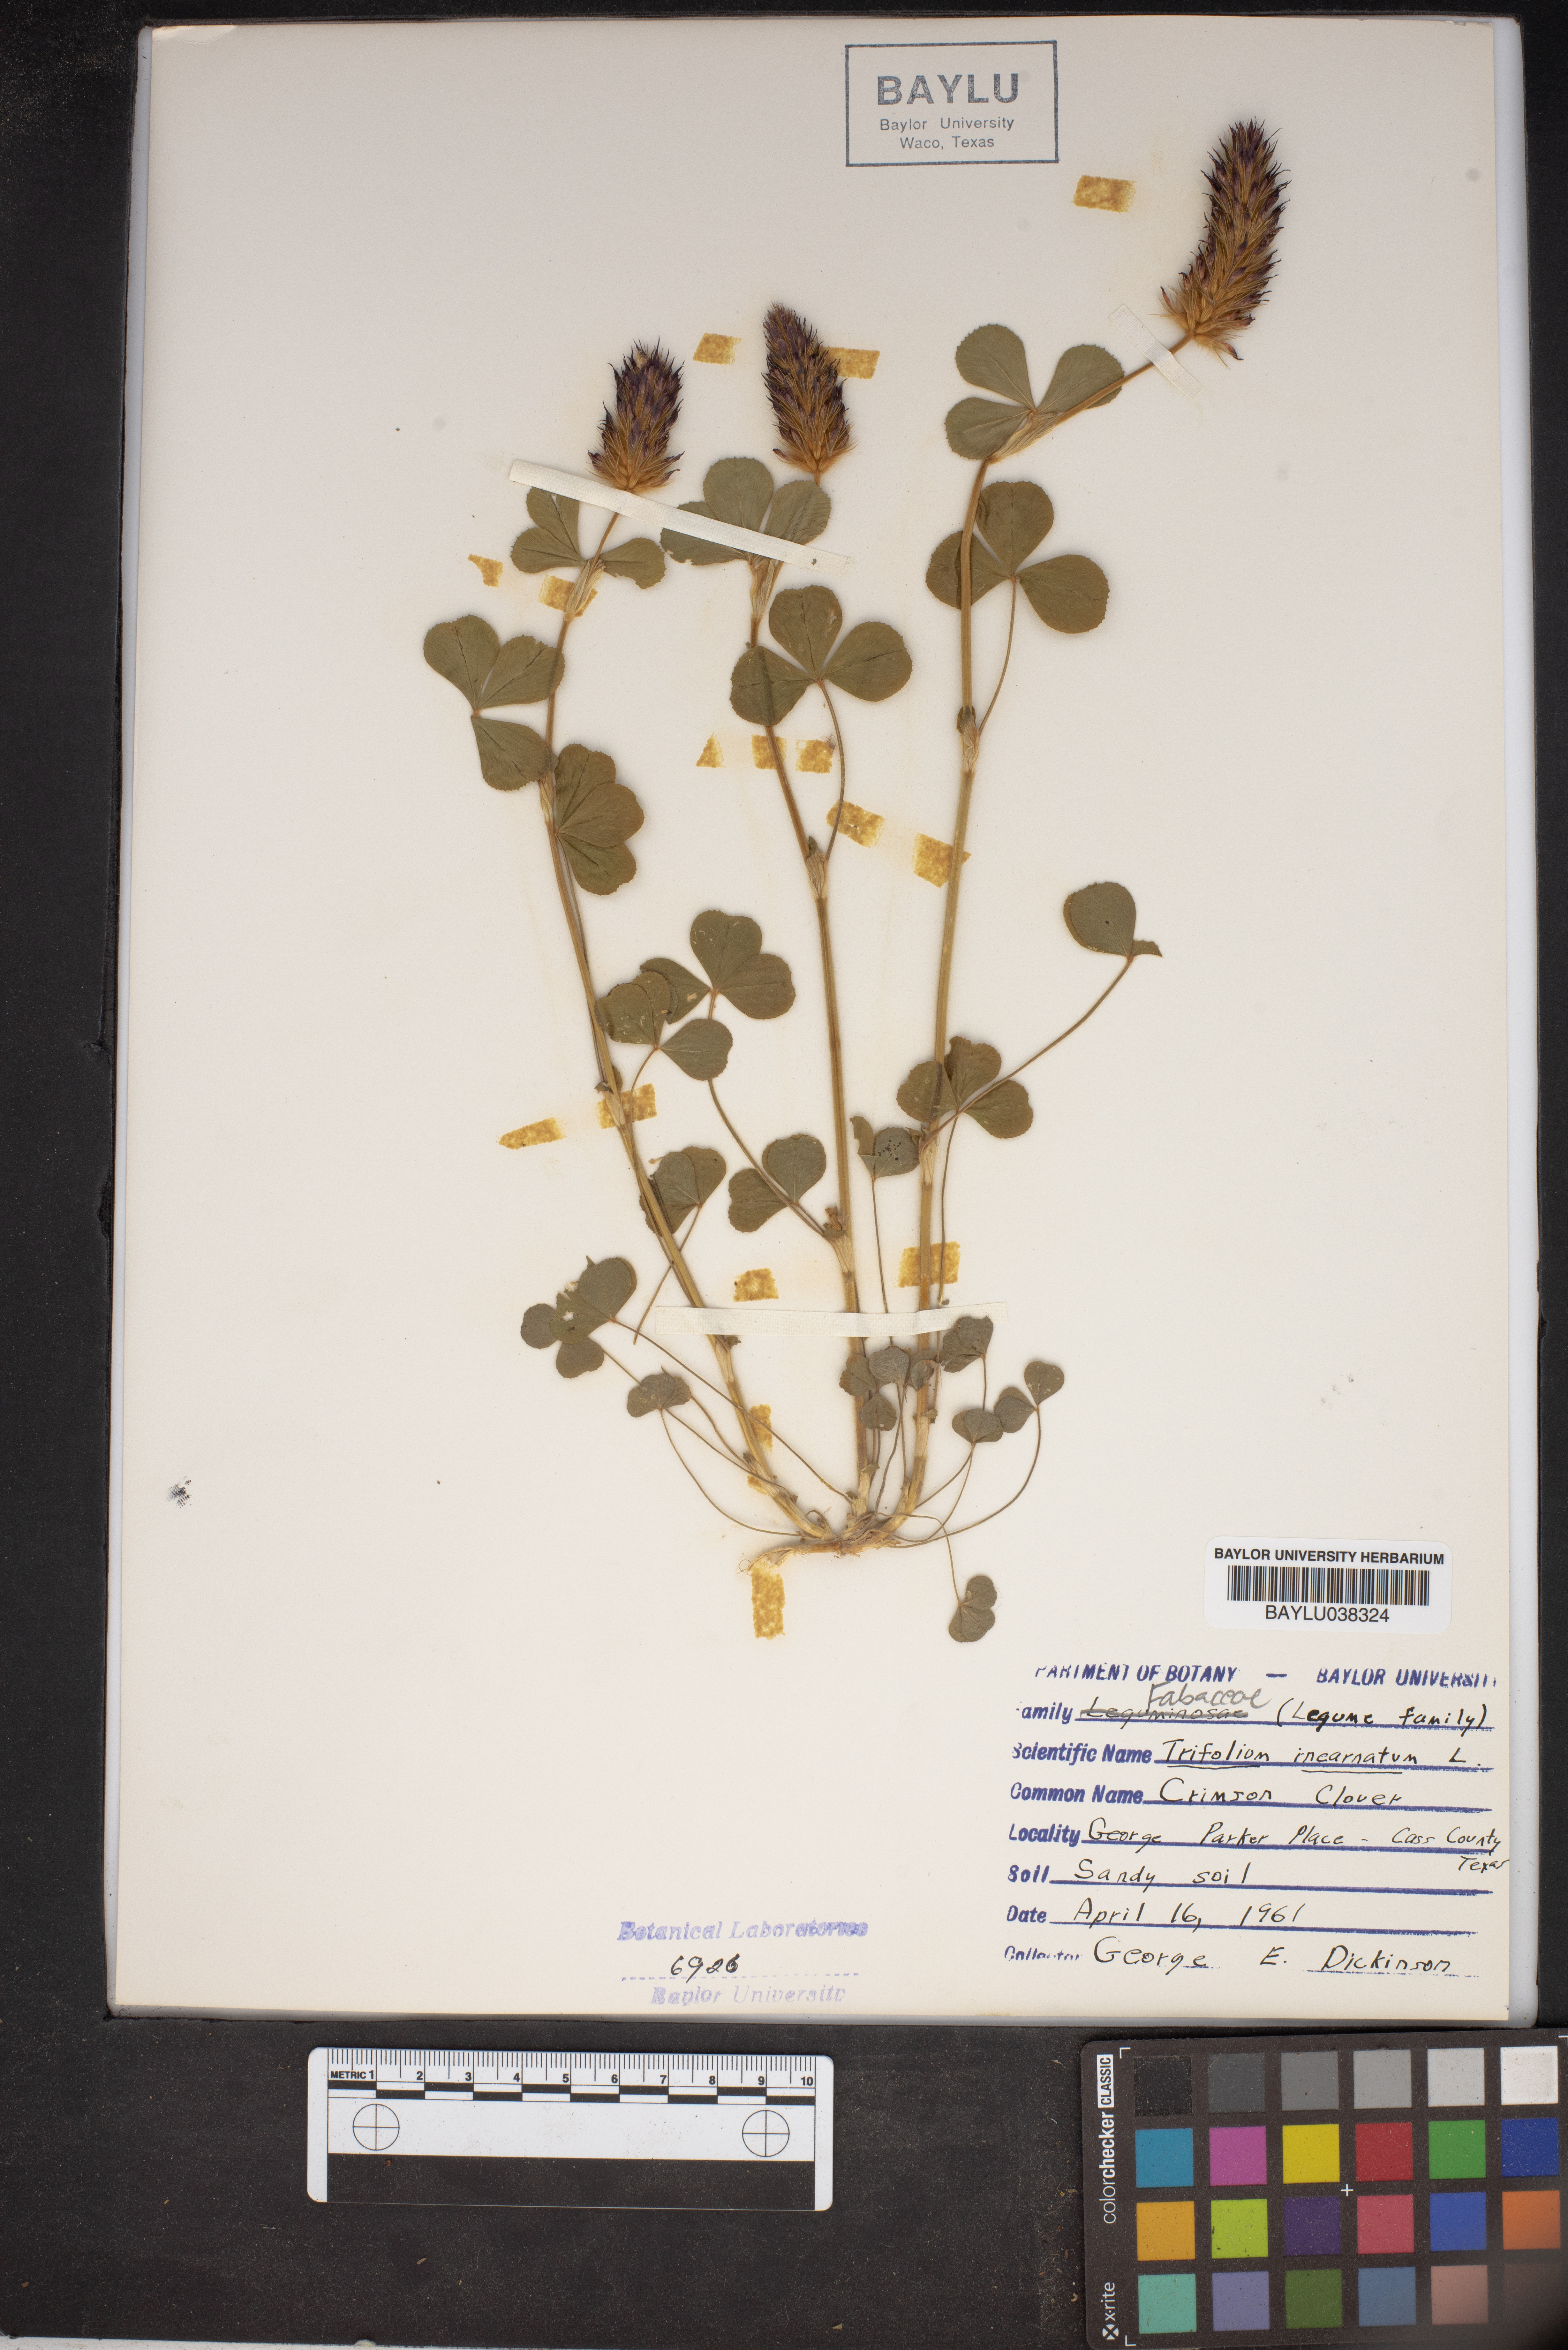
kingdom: Plantae
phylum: Tracheophyta
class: Magnoliopsida
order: Fabales
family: Fabaceae
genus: Trifolium
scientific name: Trifolium incarnatum
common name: Crimson clover
